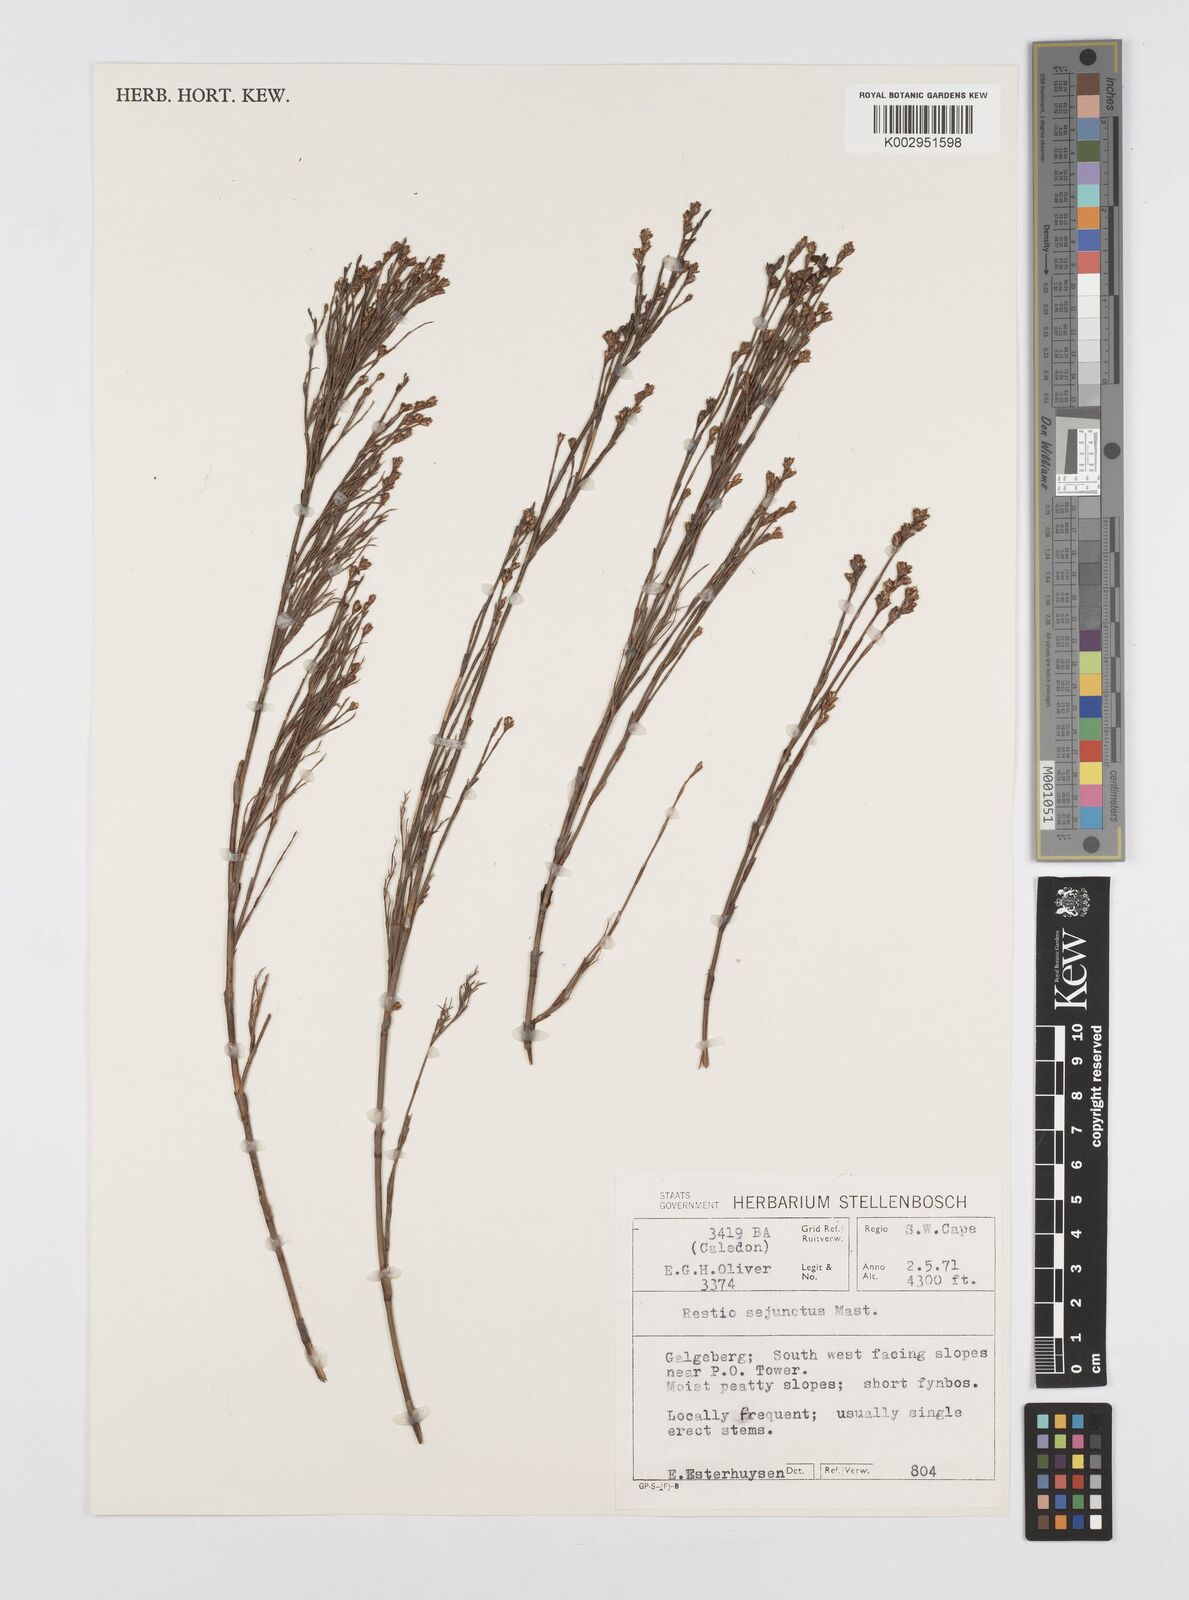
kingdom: Plantae
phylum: Tracheophyta
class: Liliopsida
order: Poales
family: Restionaceae
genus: Restio
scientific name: Restio sejunctus
